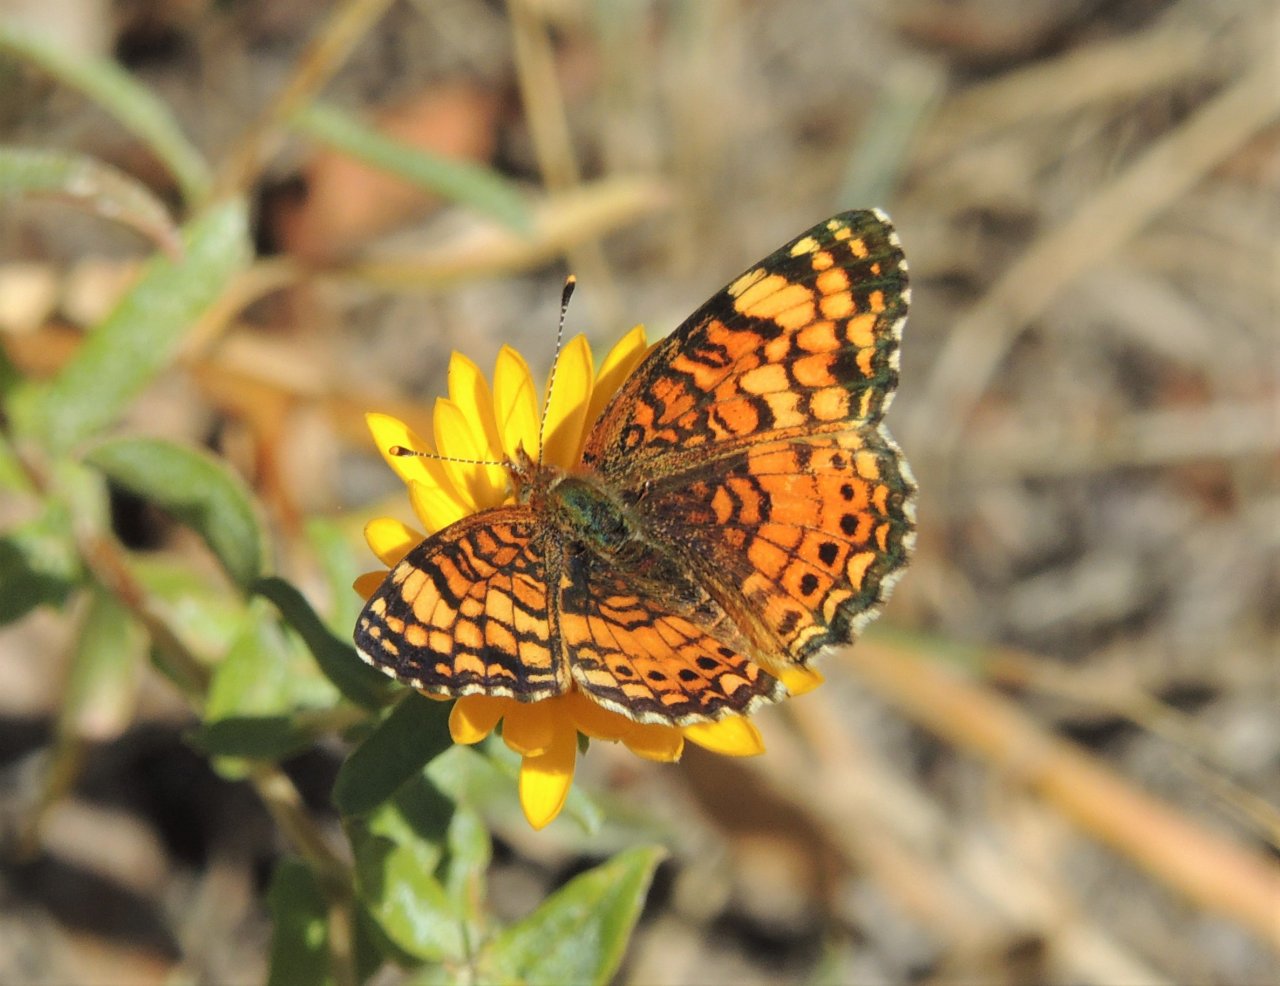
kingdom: Animalia
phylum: Arthropoda
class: Insecta
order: Lepidoptera
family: Nymphalidae
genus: Eresia
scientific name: Eresia aveyrona
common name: Mylitta Crescent
